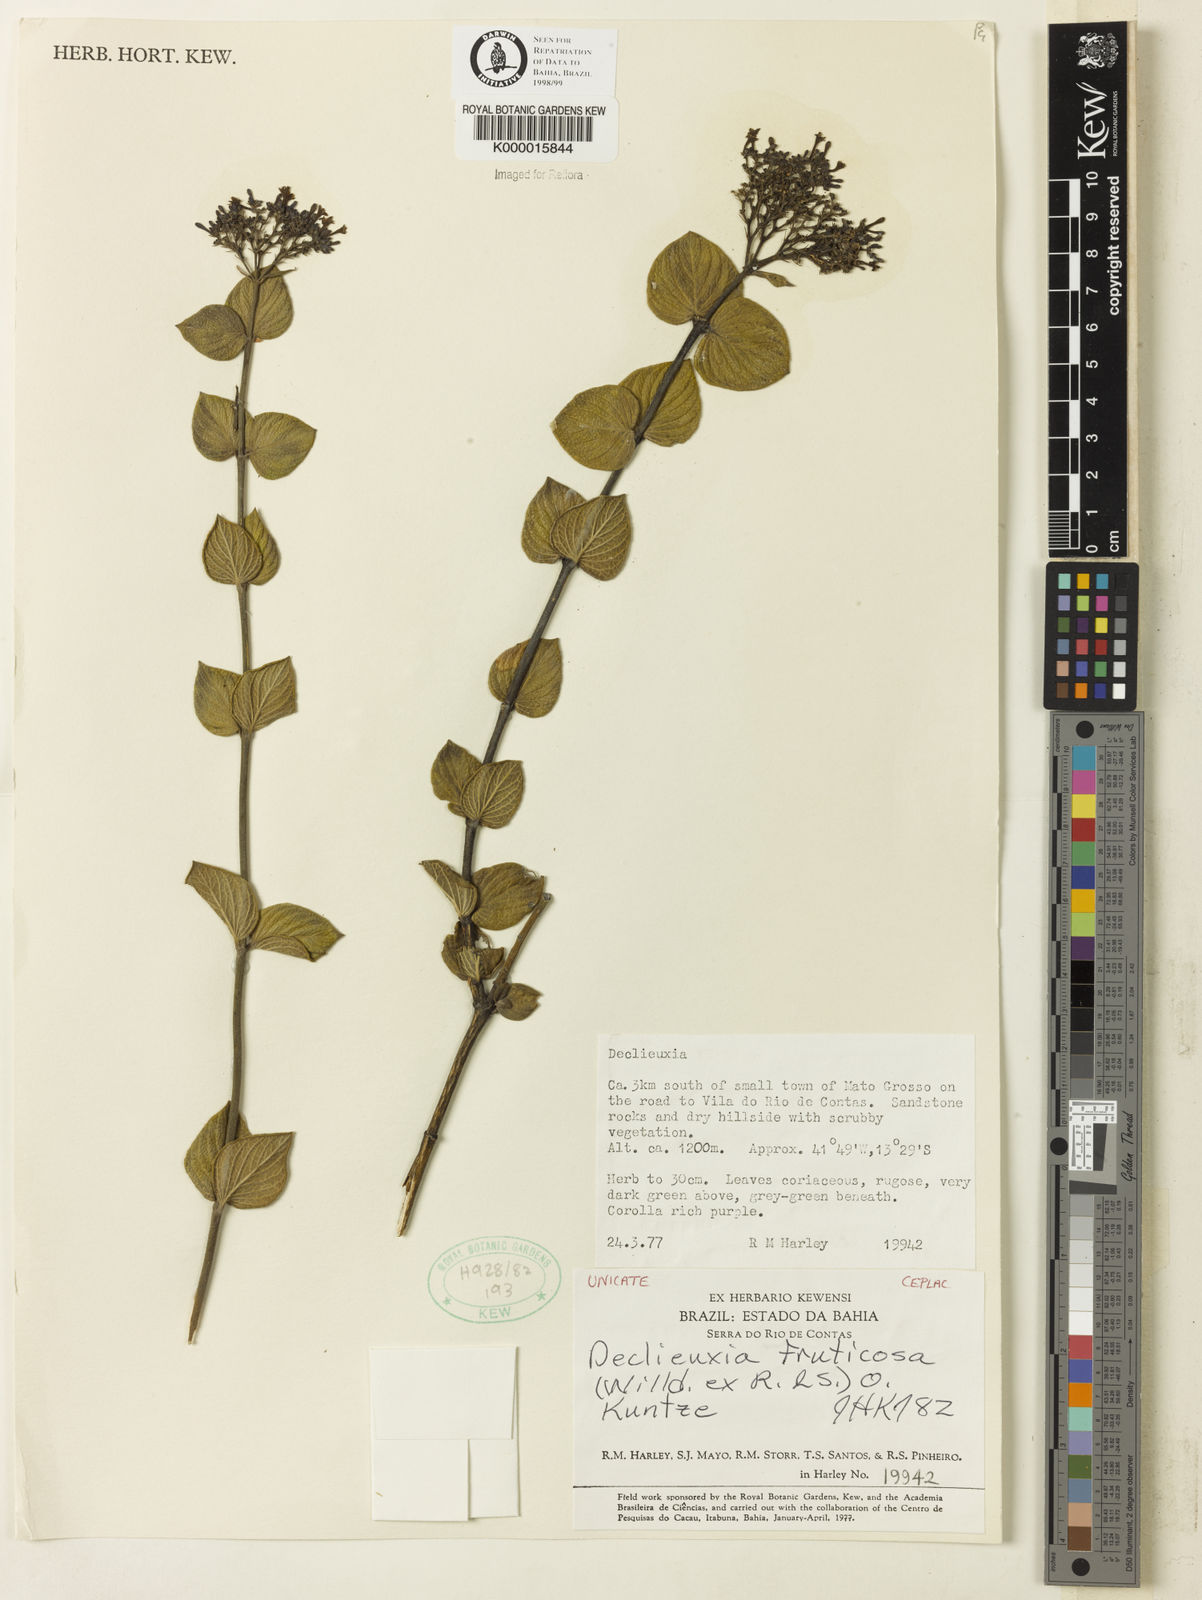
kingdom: Plantae
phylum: Tracheophyta
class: Magnoliopsida
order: Gentianales
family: Rubiaceae
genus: Declieuxia
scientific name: Declieuxia fruticosa
